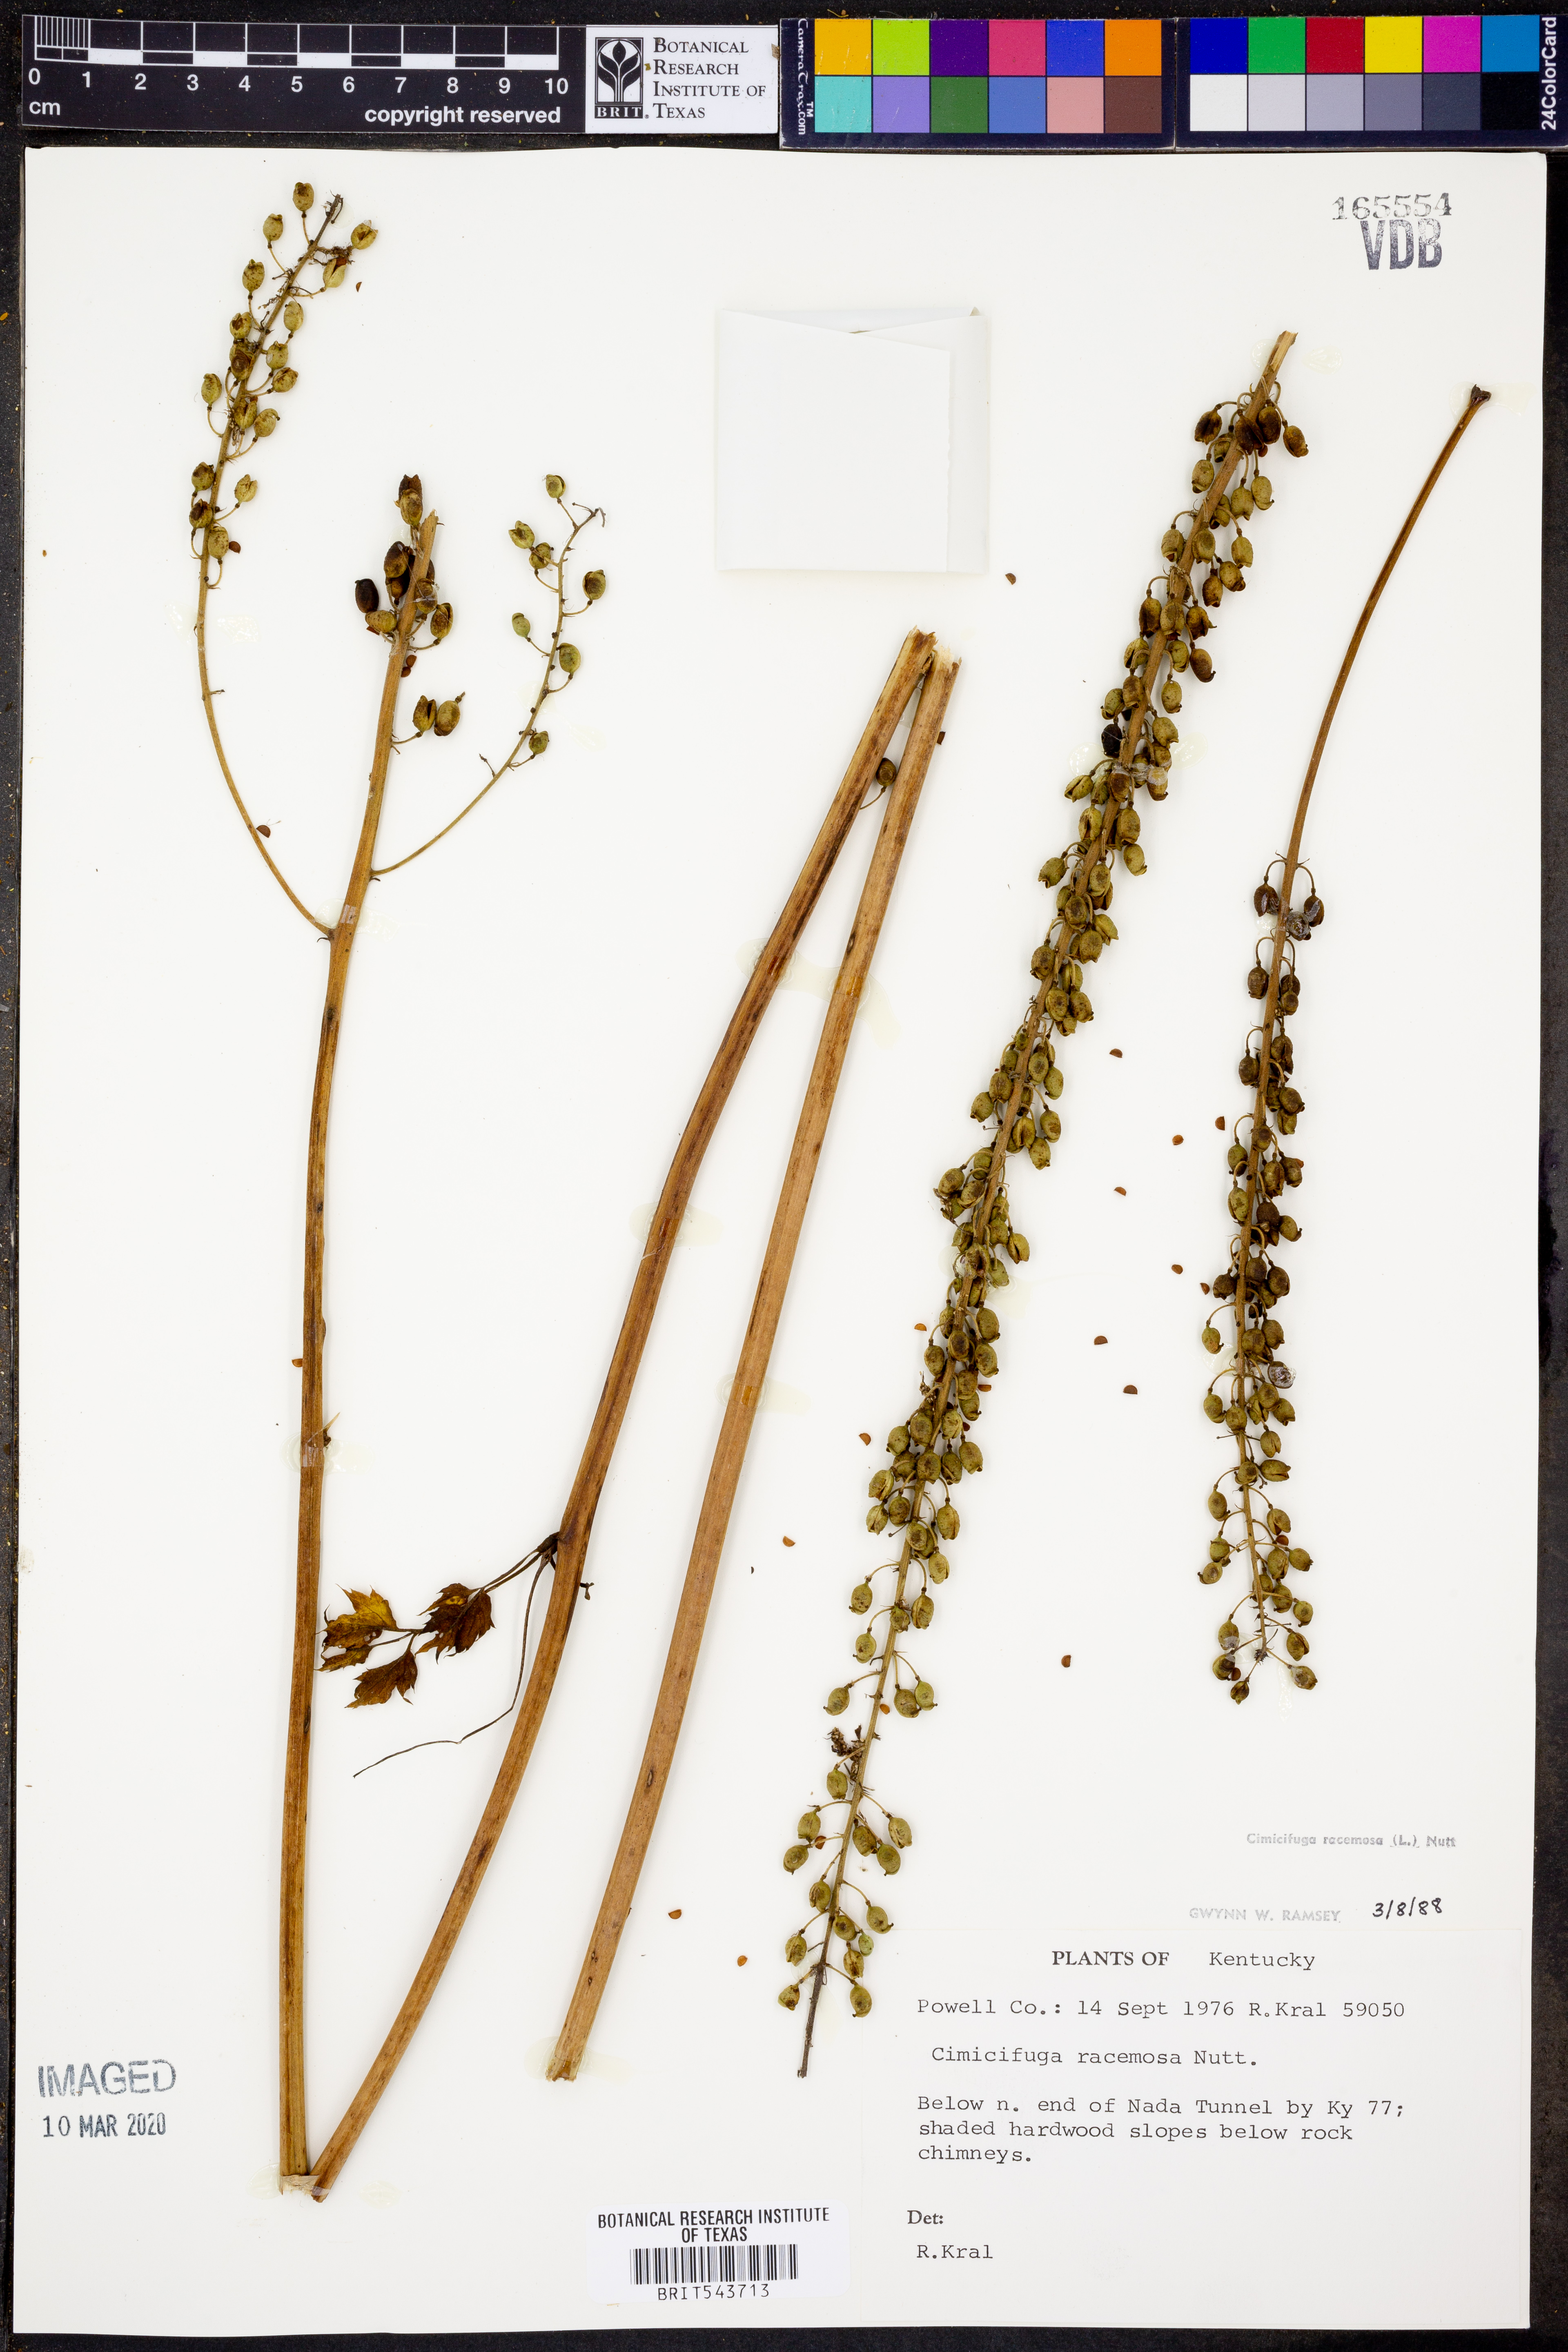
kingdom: Plantae
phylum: Tracheophyta
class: Magnoliopsida
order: Ranunculales
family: Ranunculaceae
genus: Actaea
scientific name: Actaea racemosa
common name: Black cohosh
